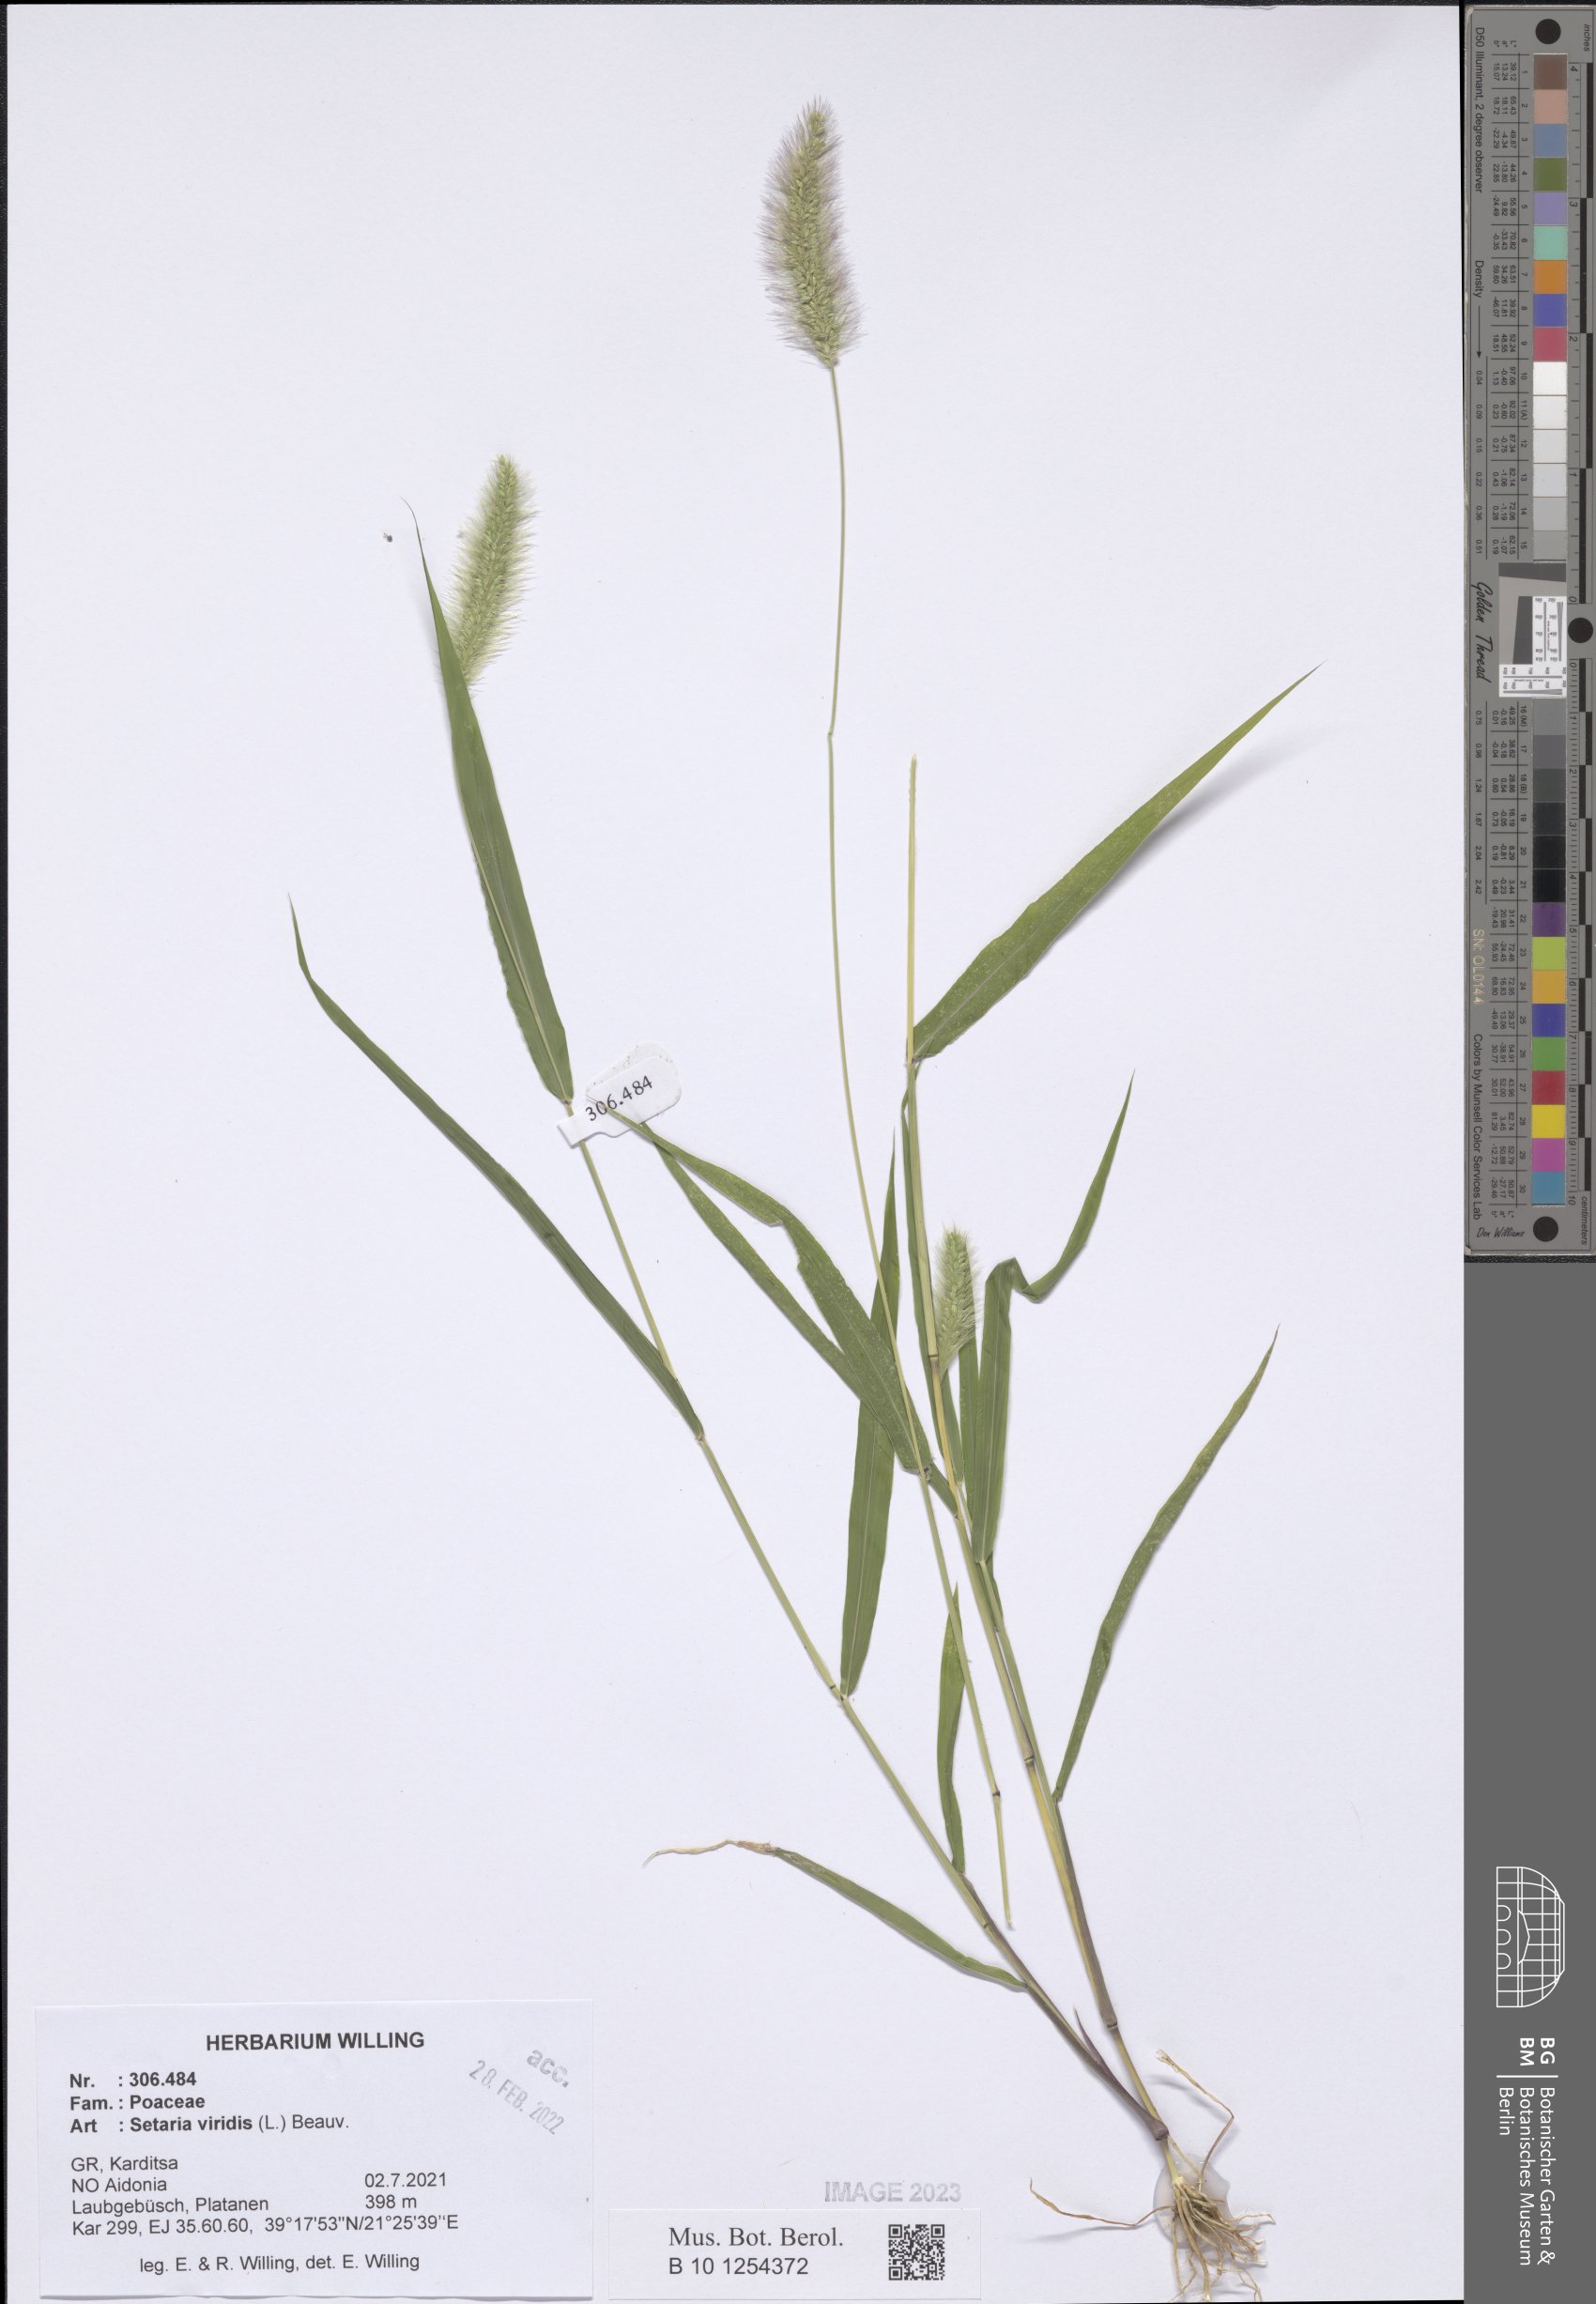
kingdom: Plantae
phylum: Tracheophyta
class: Liliopsida
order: Poales
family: Poaceae
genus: Setaria
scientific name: Setaria viridis
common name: Green bristlegrass
